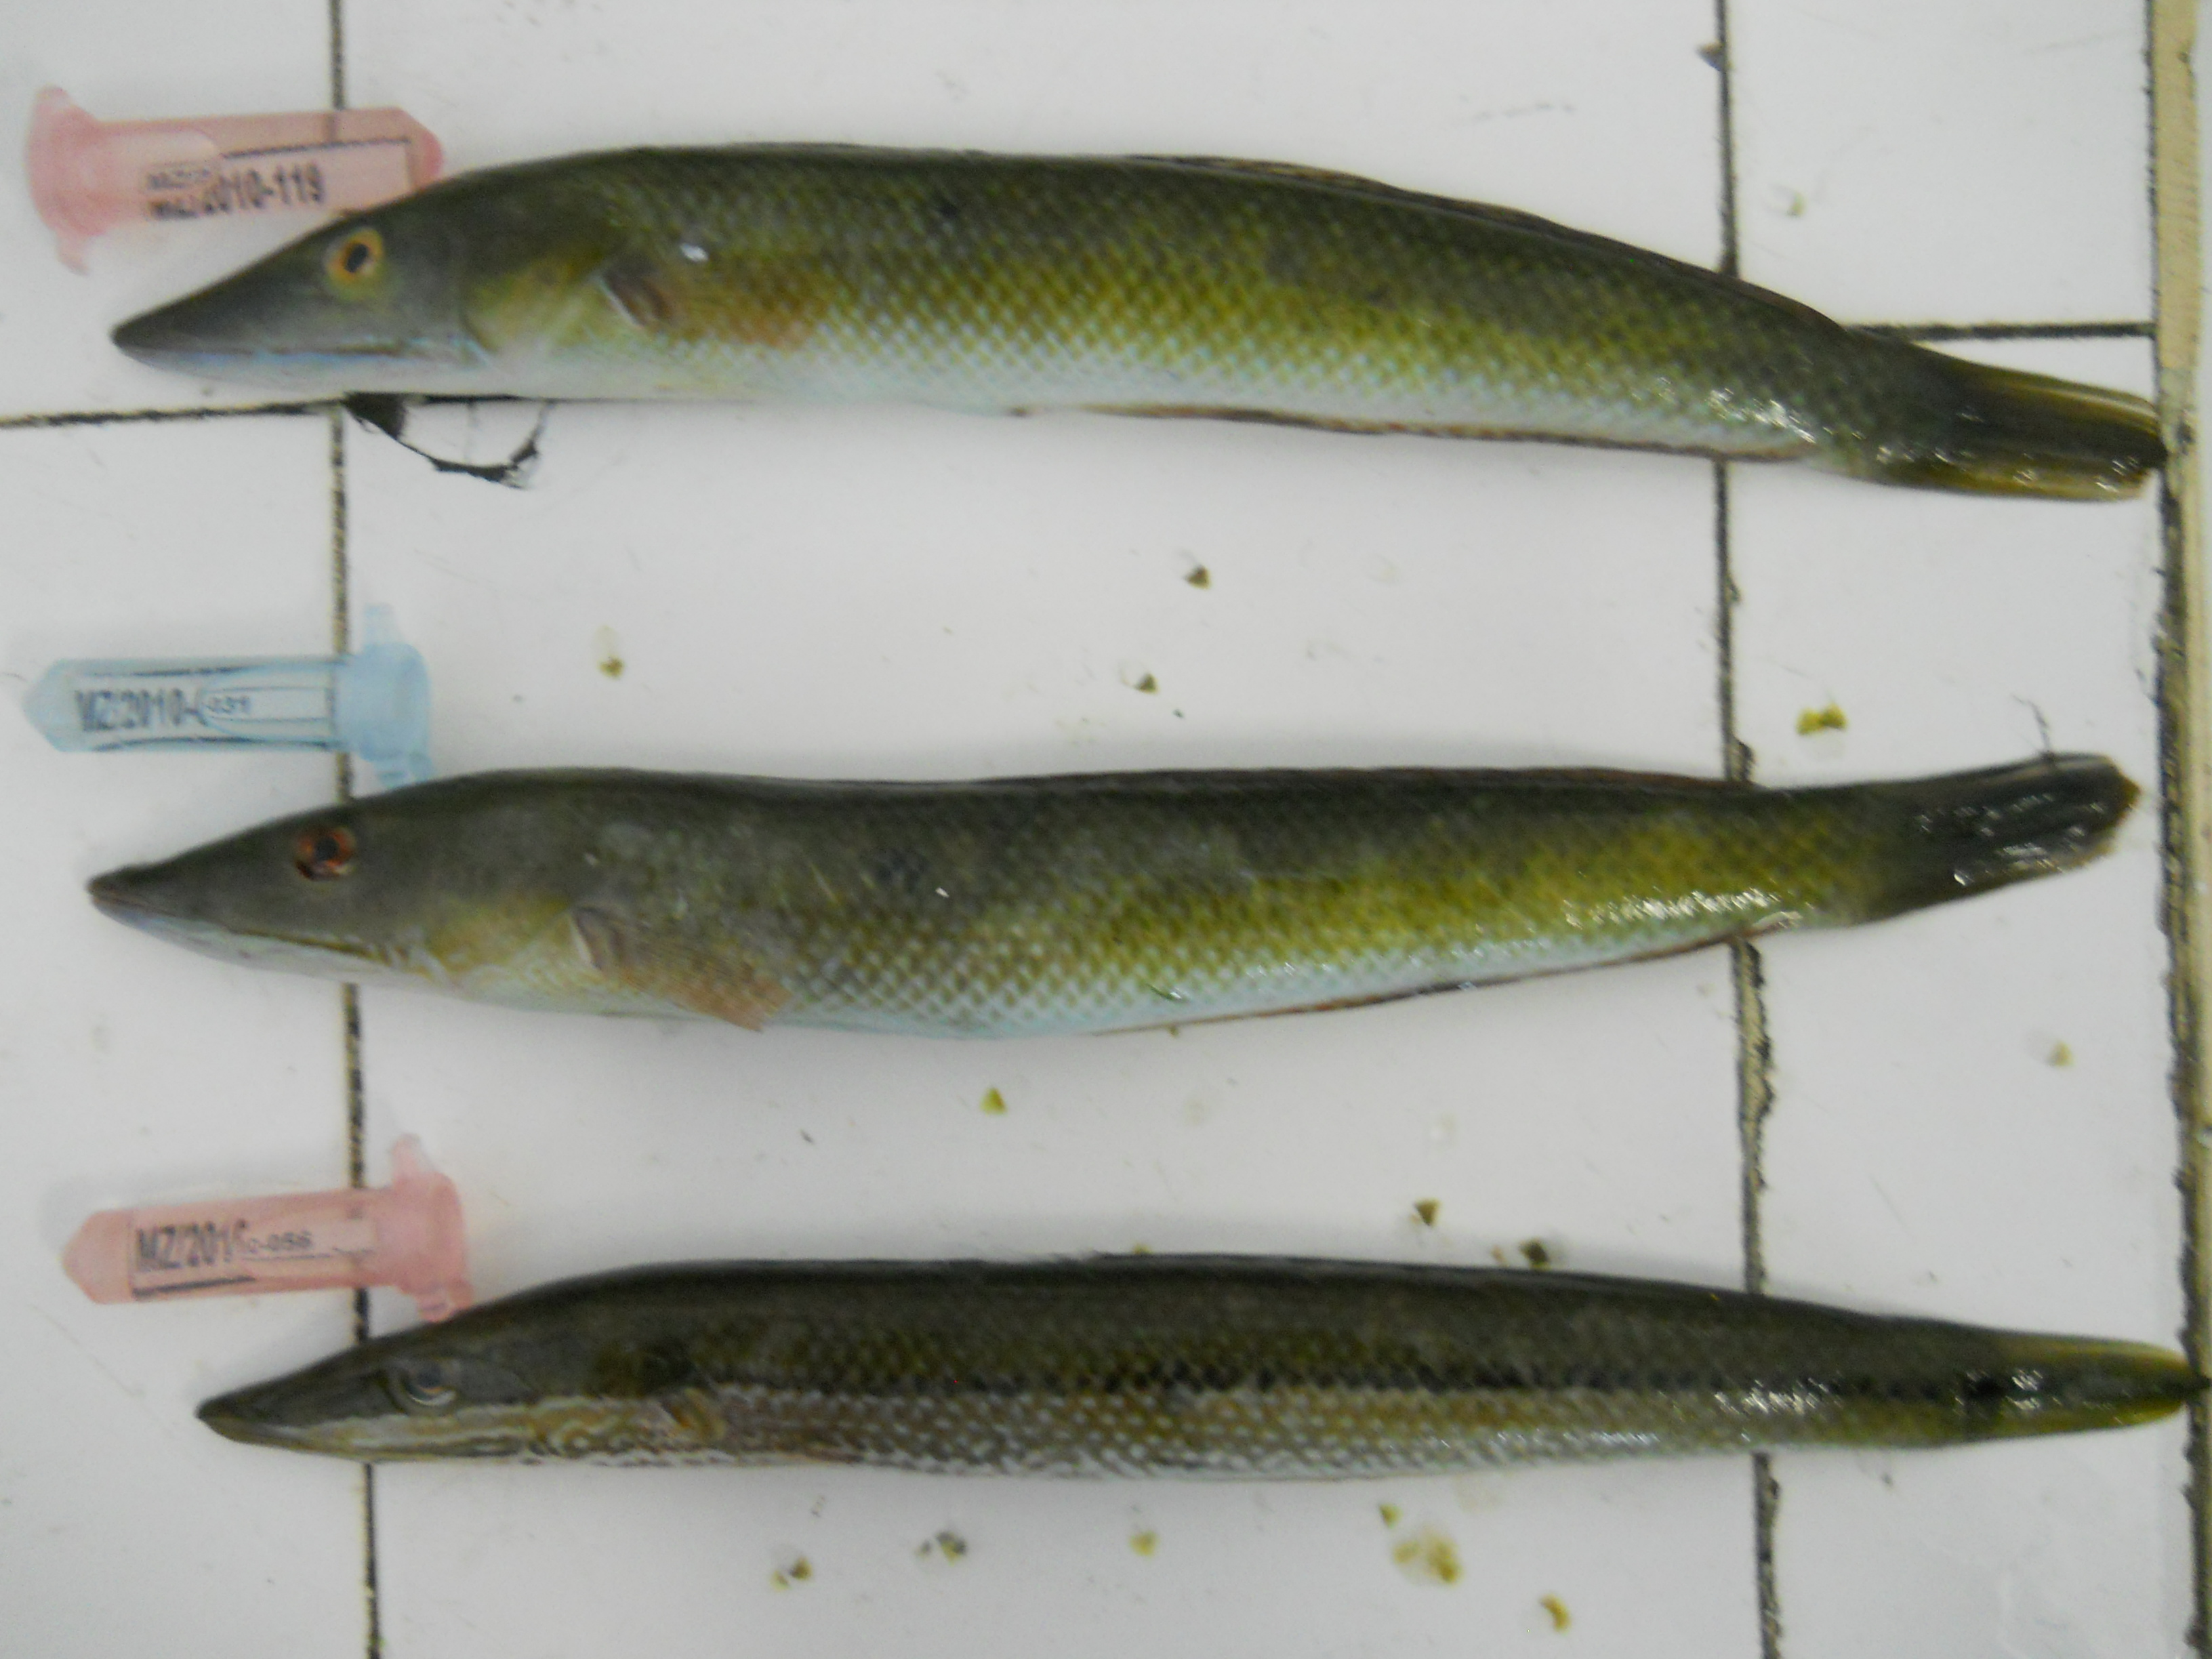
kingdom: Animalia
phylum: Chordata
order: Perciformes
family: Labridae
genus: Cheilio
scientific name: Cheilio inermis
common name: Cigar wrasse
